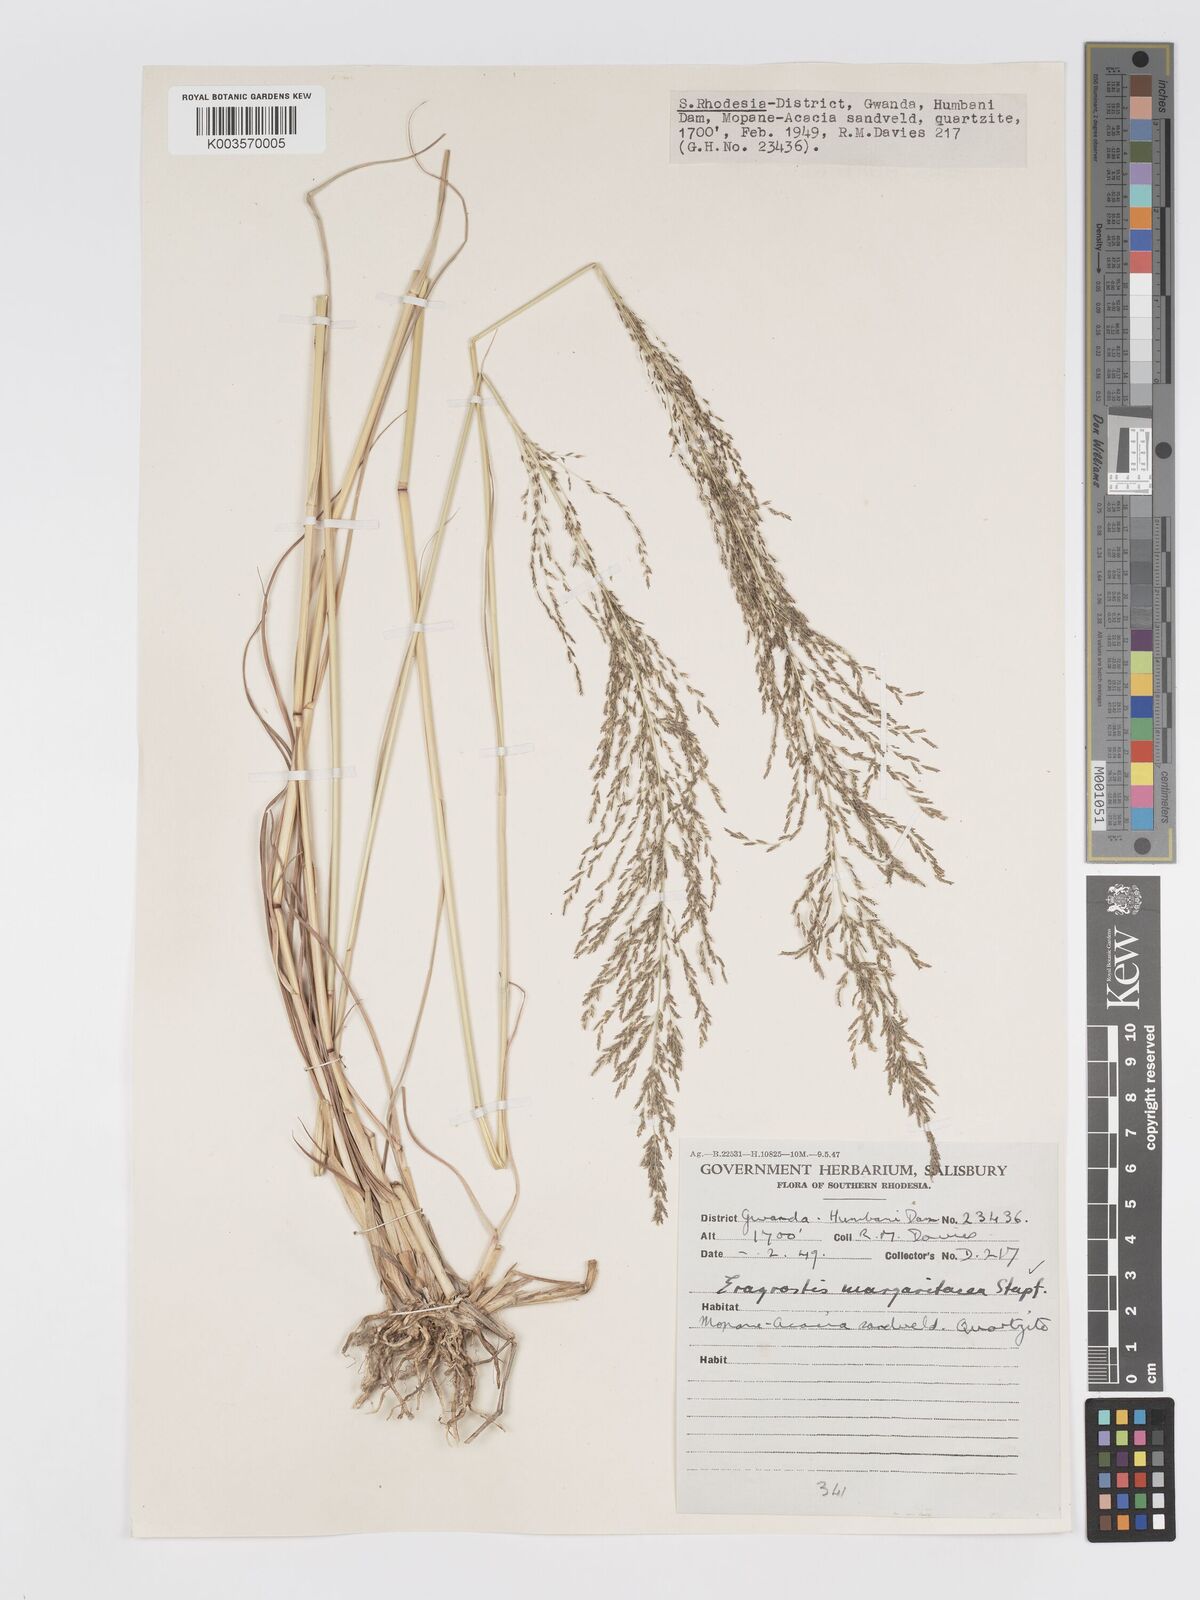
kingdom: Plantae
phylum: Tracheophyta
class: Liliopsida
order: Poales
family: Poaceae
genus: Eragrostis
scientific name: Eragrostis rotifer
